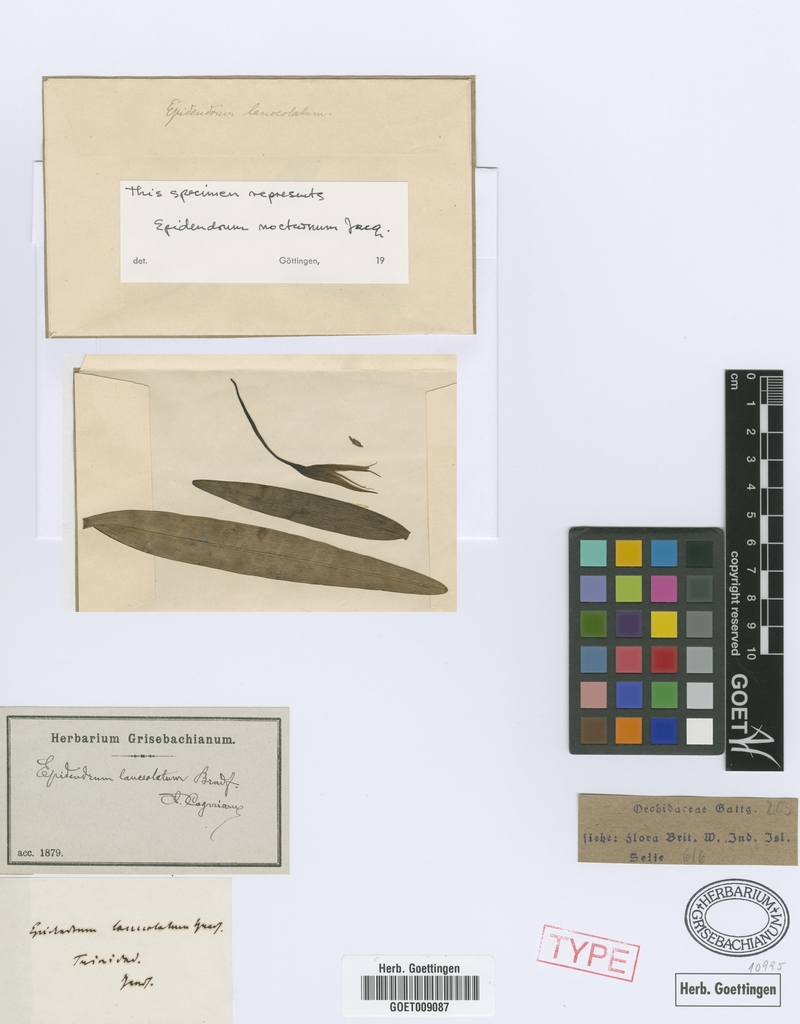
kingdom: Plantae
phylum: Tracheophyta
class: Liliopsida
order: Asparagales
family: Orchidaceae
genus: Epidendrum
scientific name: Epidendrum lanceolatum
